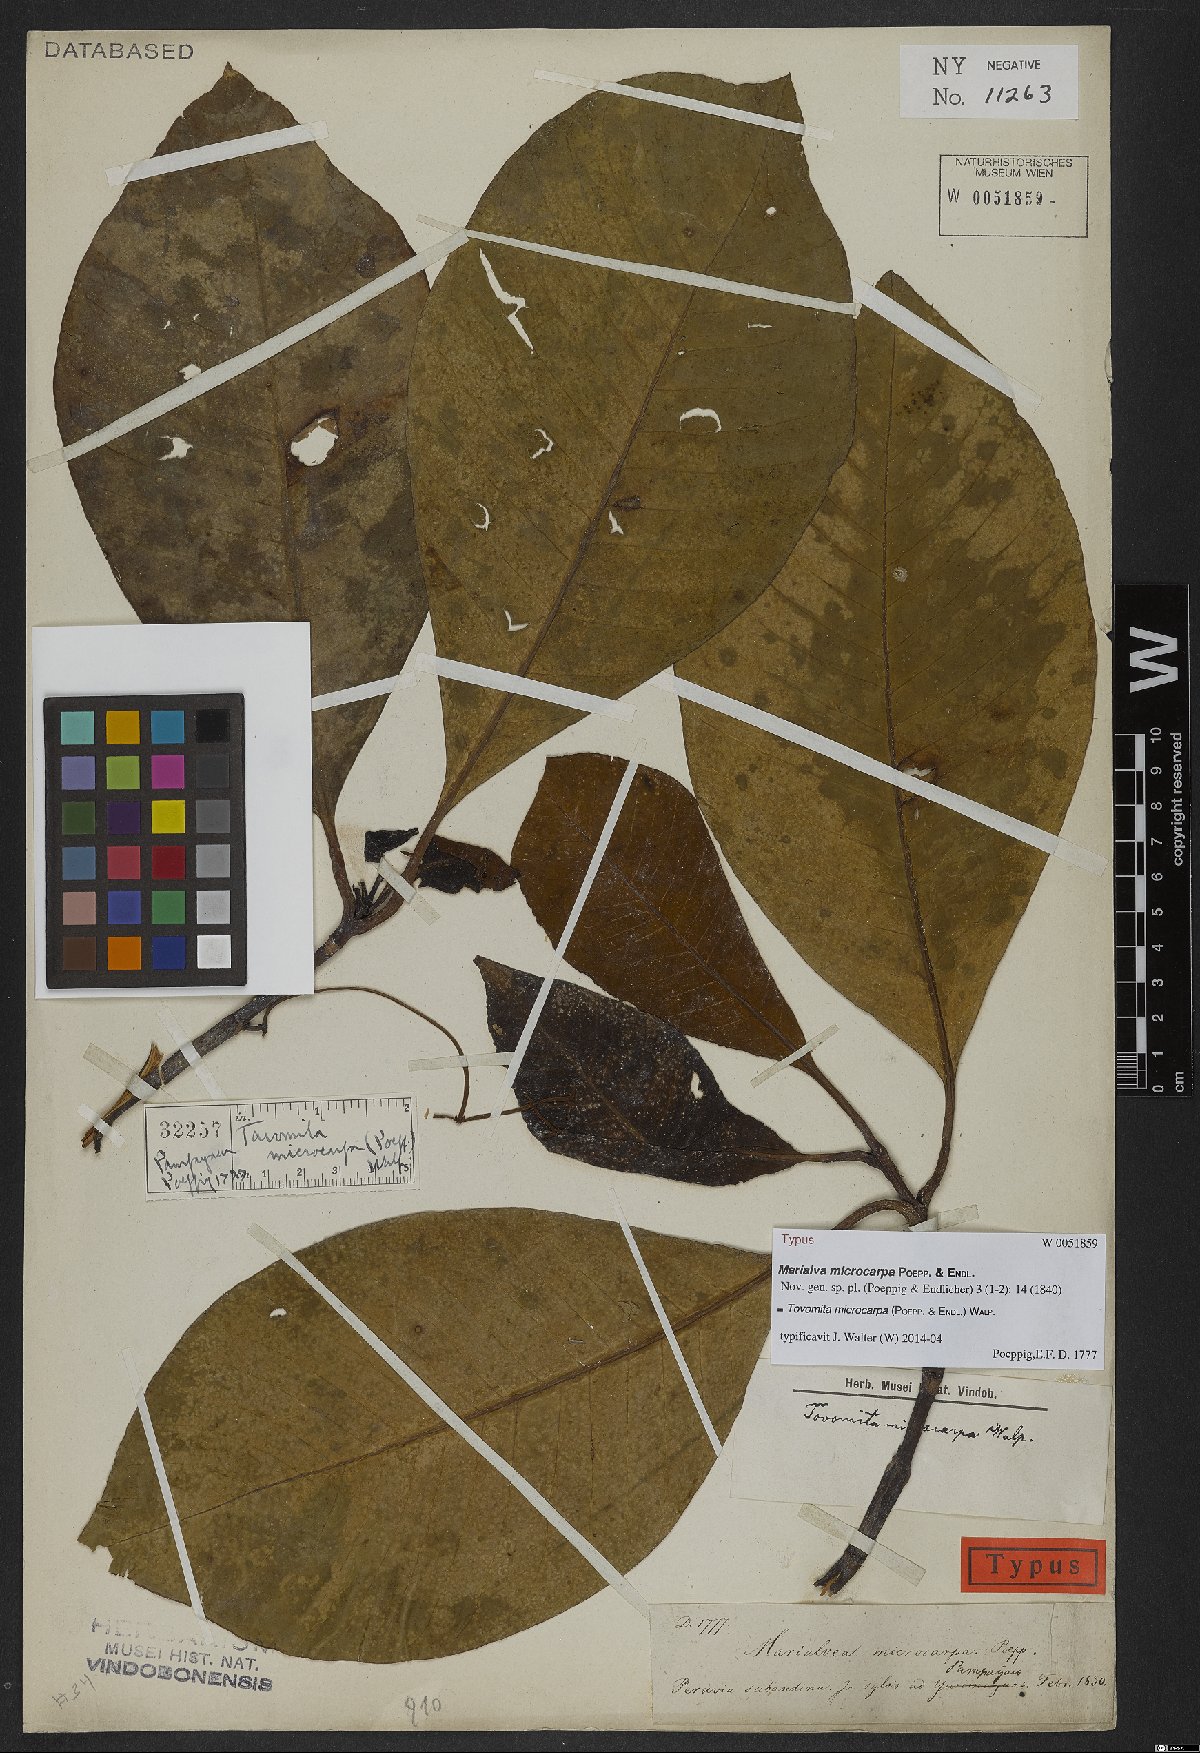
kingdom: Plantae
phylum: Tracheophyta
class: Magnoliopsida
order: Malpighiales
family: Clusiaceae
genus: Tovomita
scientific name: Tovomita microcarpa
